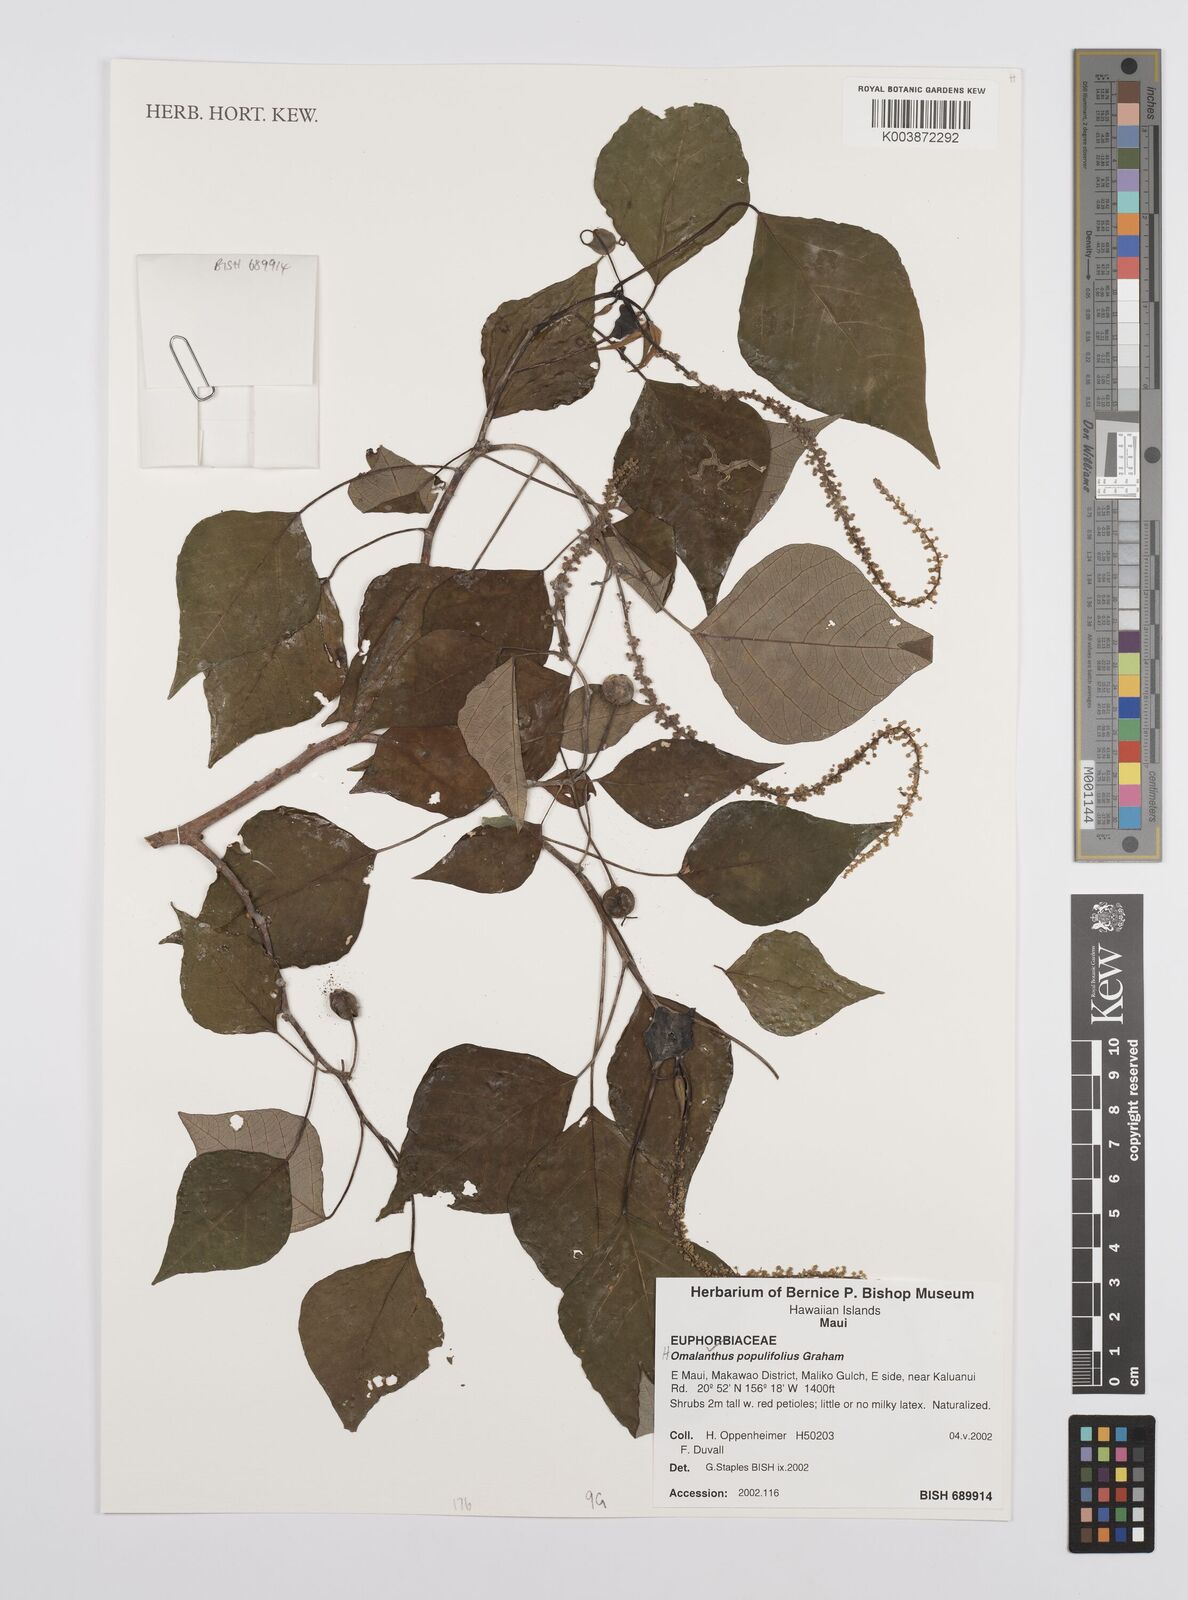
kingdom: Plantae
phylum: Tracheophyta
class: Magnoliopsida
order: Malpighiales
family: Euphorbiaceae
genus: Homalanthus
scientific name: Homalanthus populifolius
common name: Queensland poplar
